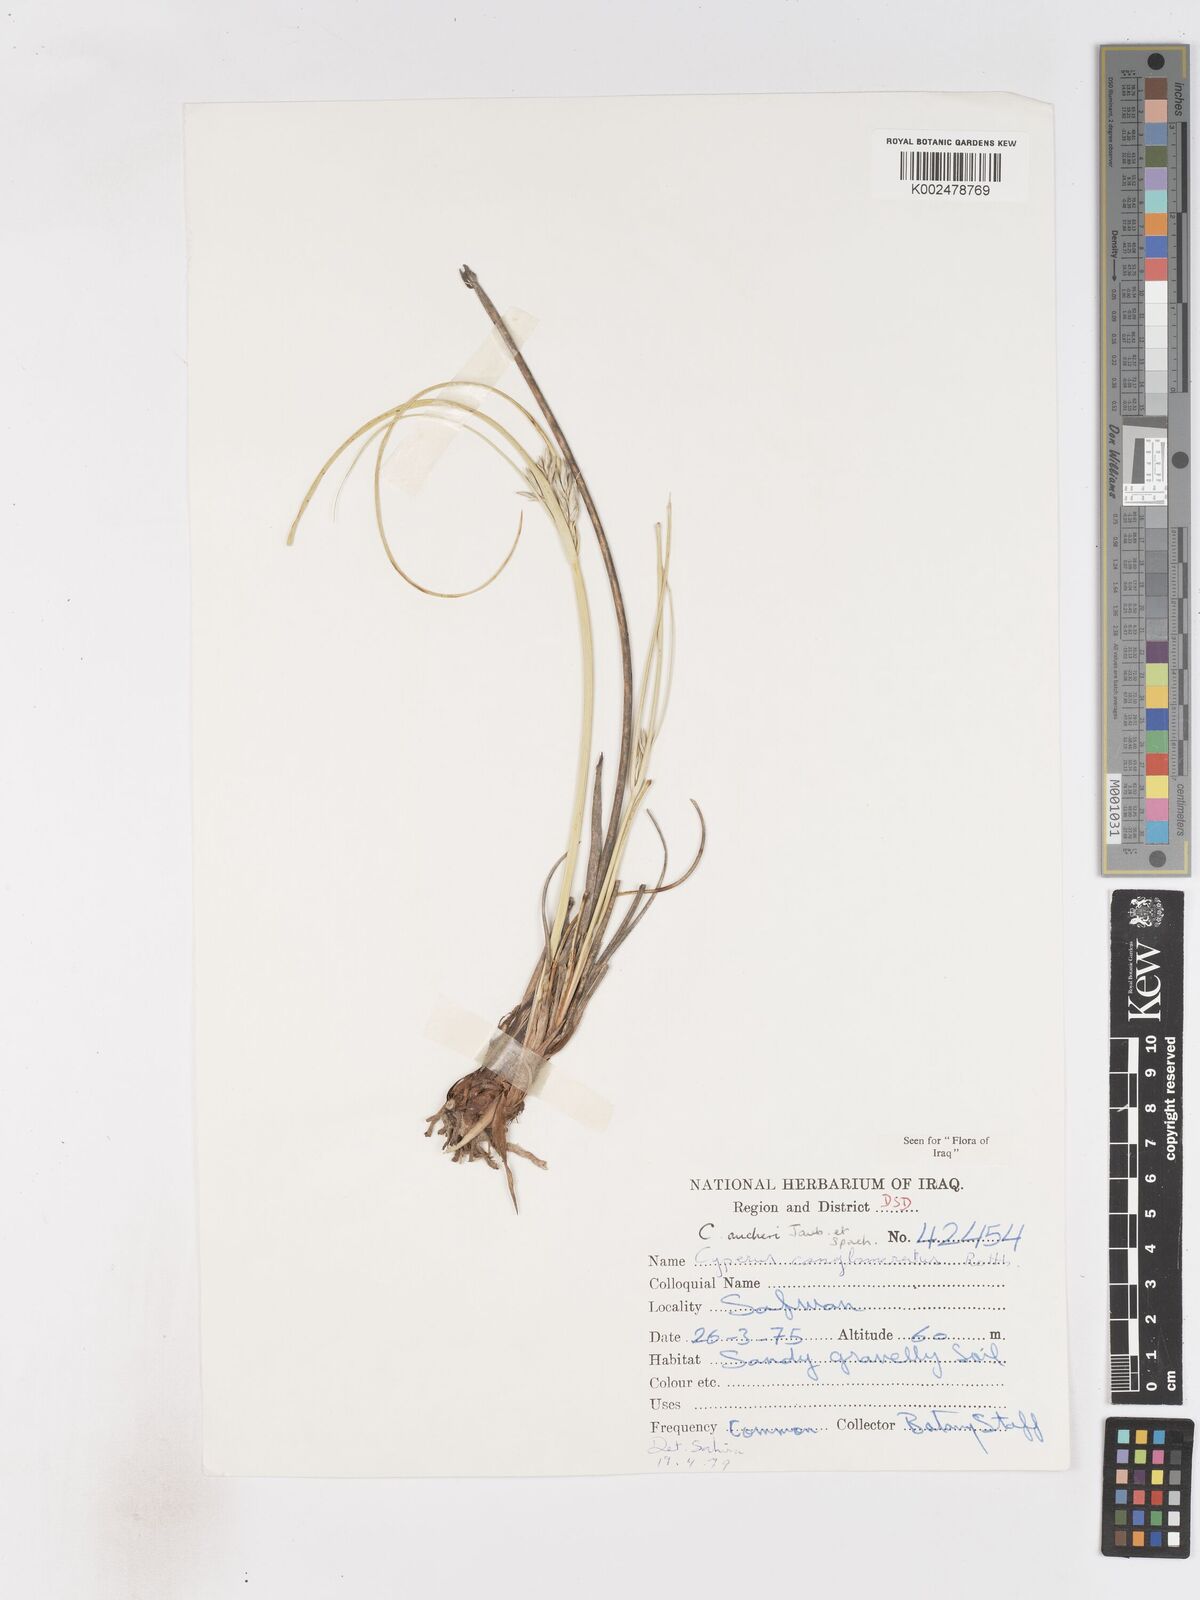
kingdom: Plantae
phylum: Tracheophyta
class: Liliopsida
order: Poales
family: Cyperaceae
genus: Cyperus
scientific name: Cyperus aucheri
